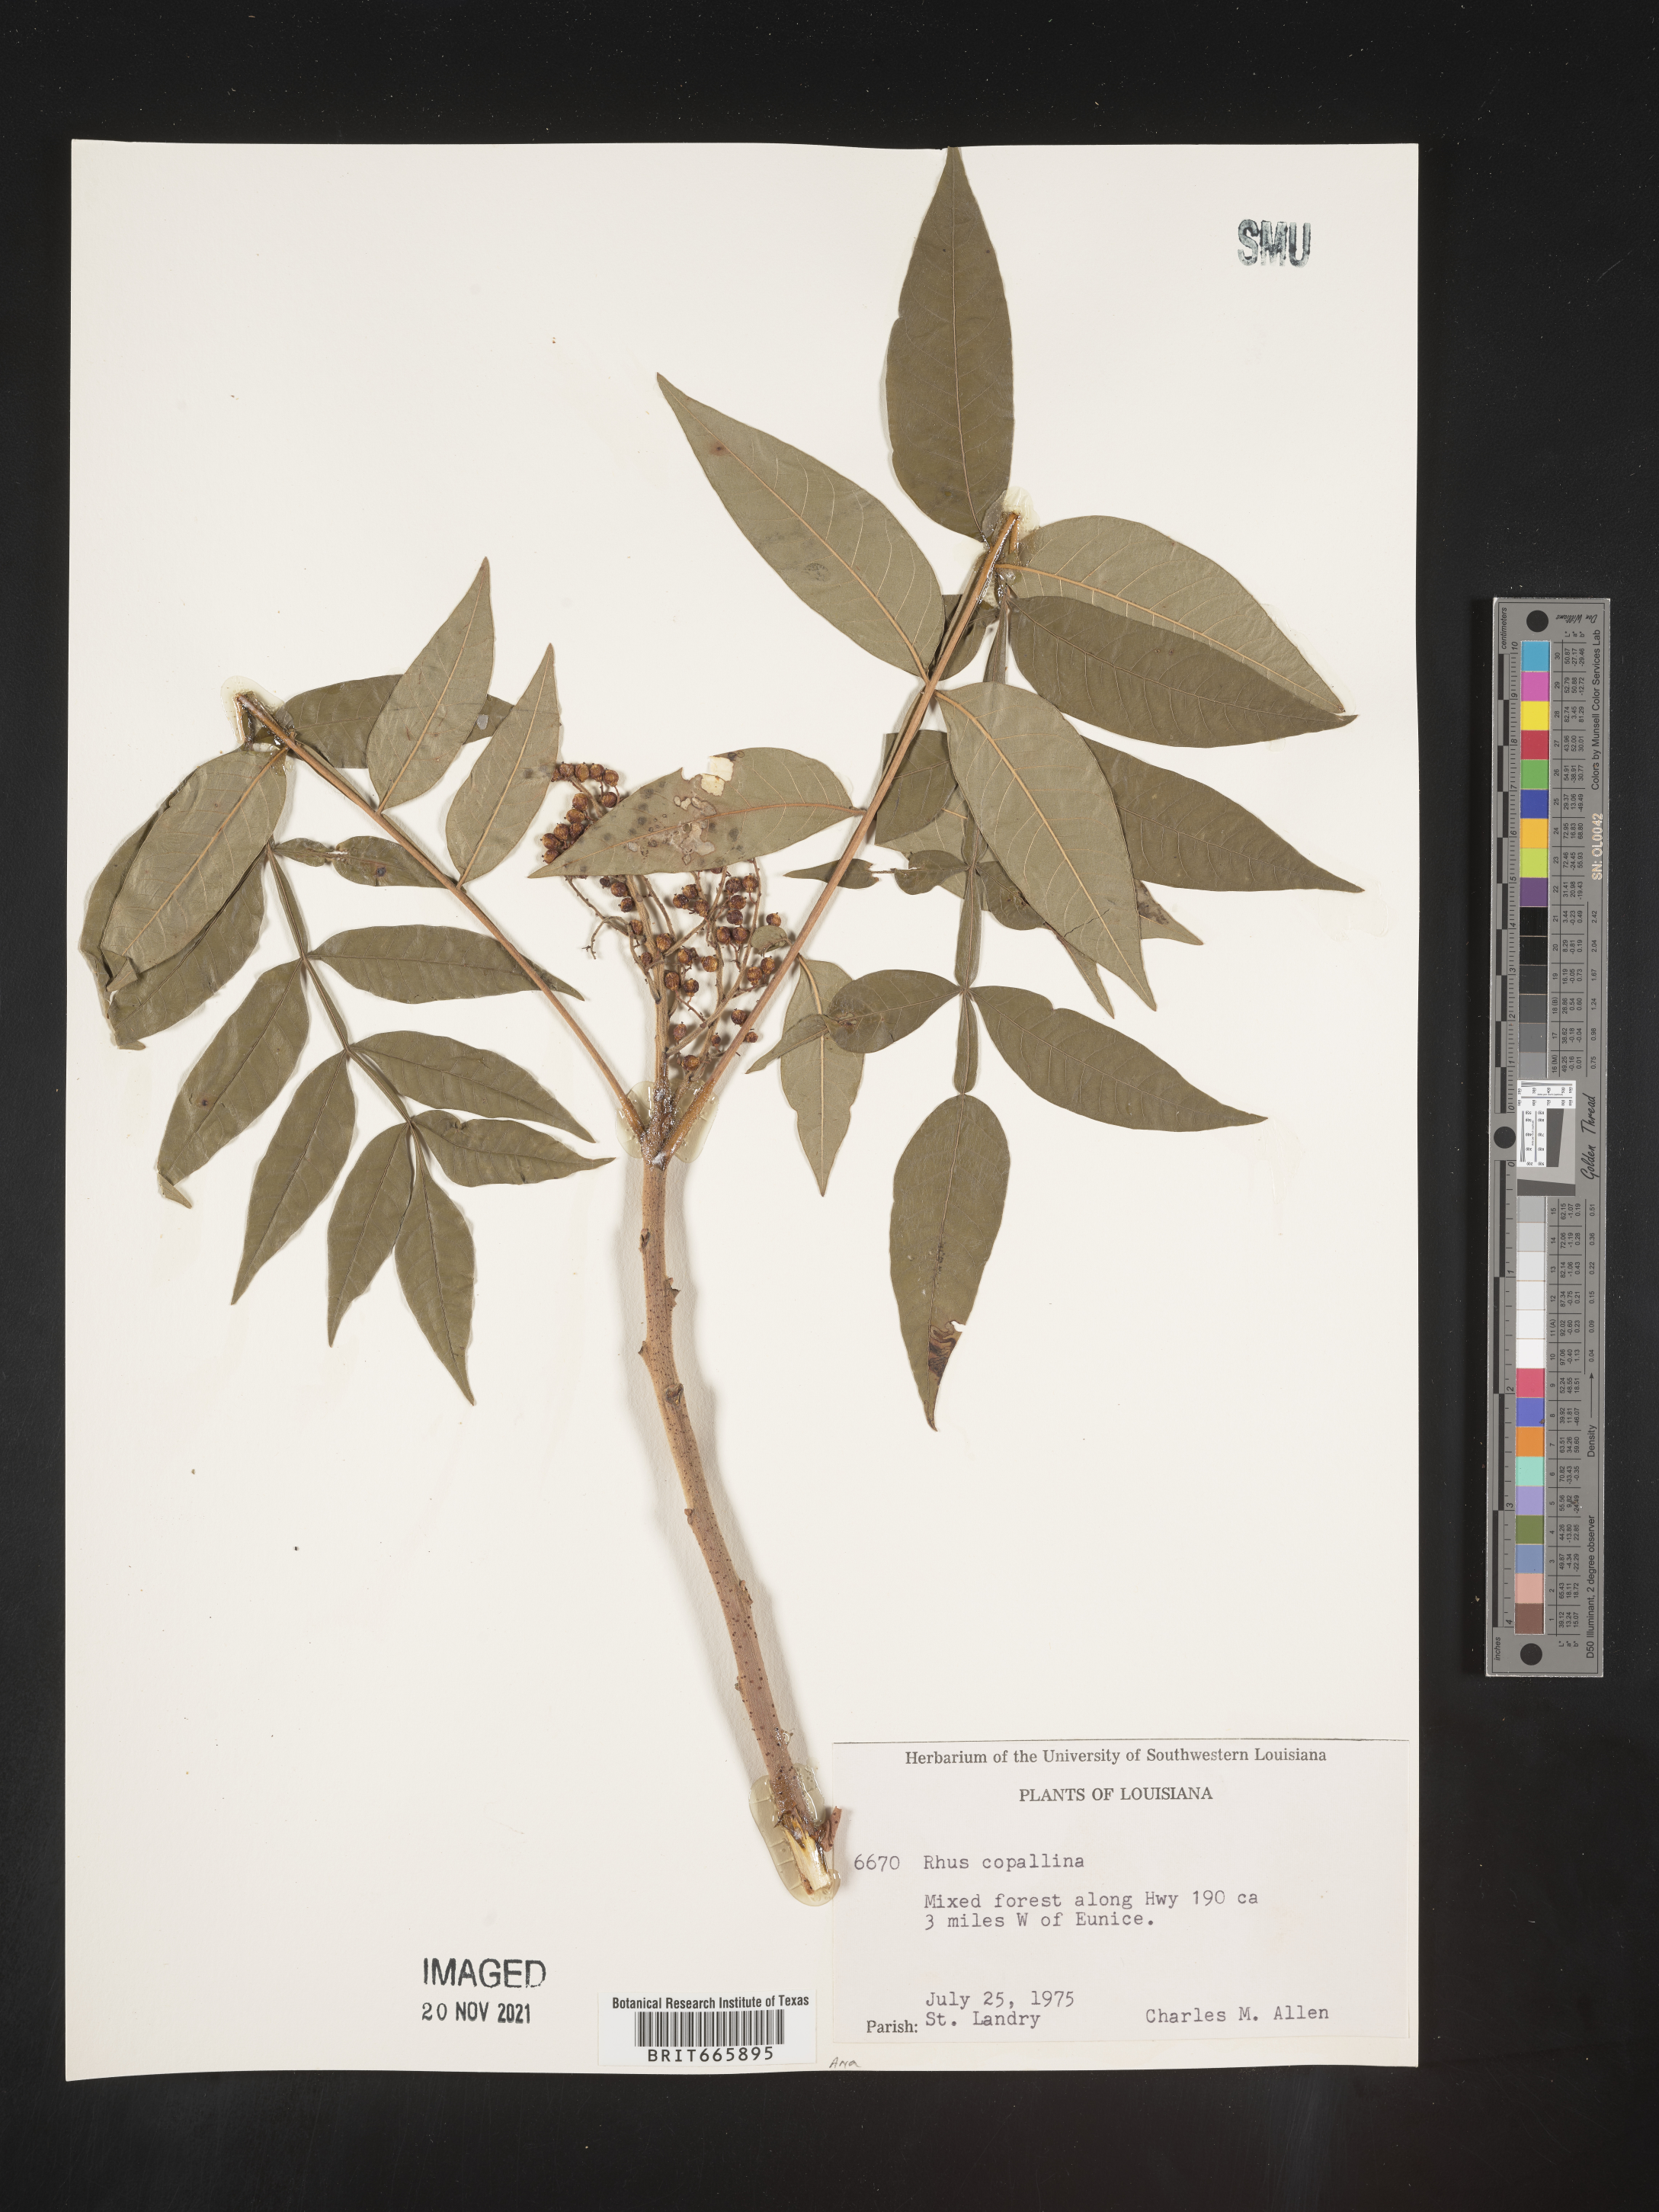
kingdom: Plantae
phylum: Tracheophyta
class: Magnoliopsida
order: Sapindales
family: Anacardiaceae
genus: Rhus
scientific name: Rhus copallina
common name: Shining sumac
